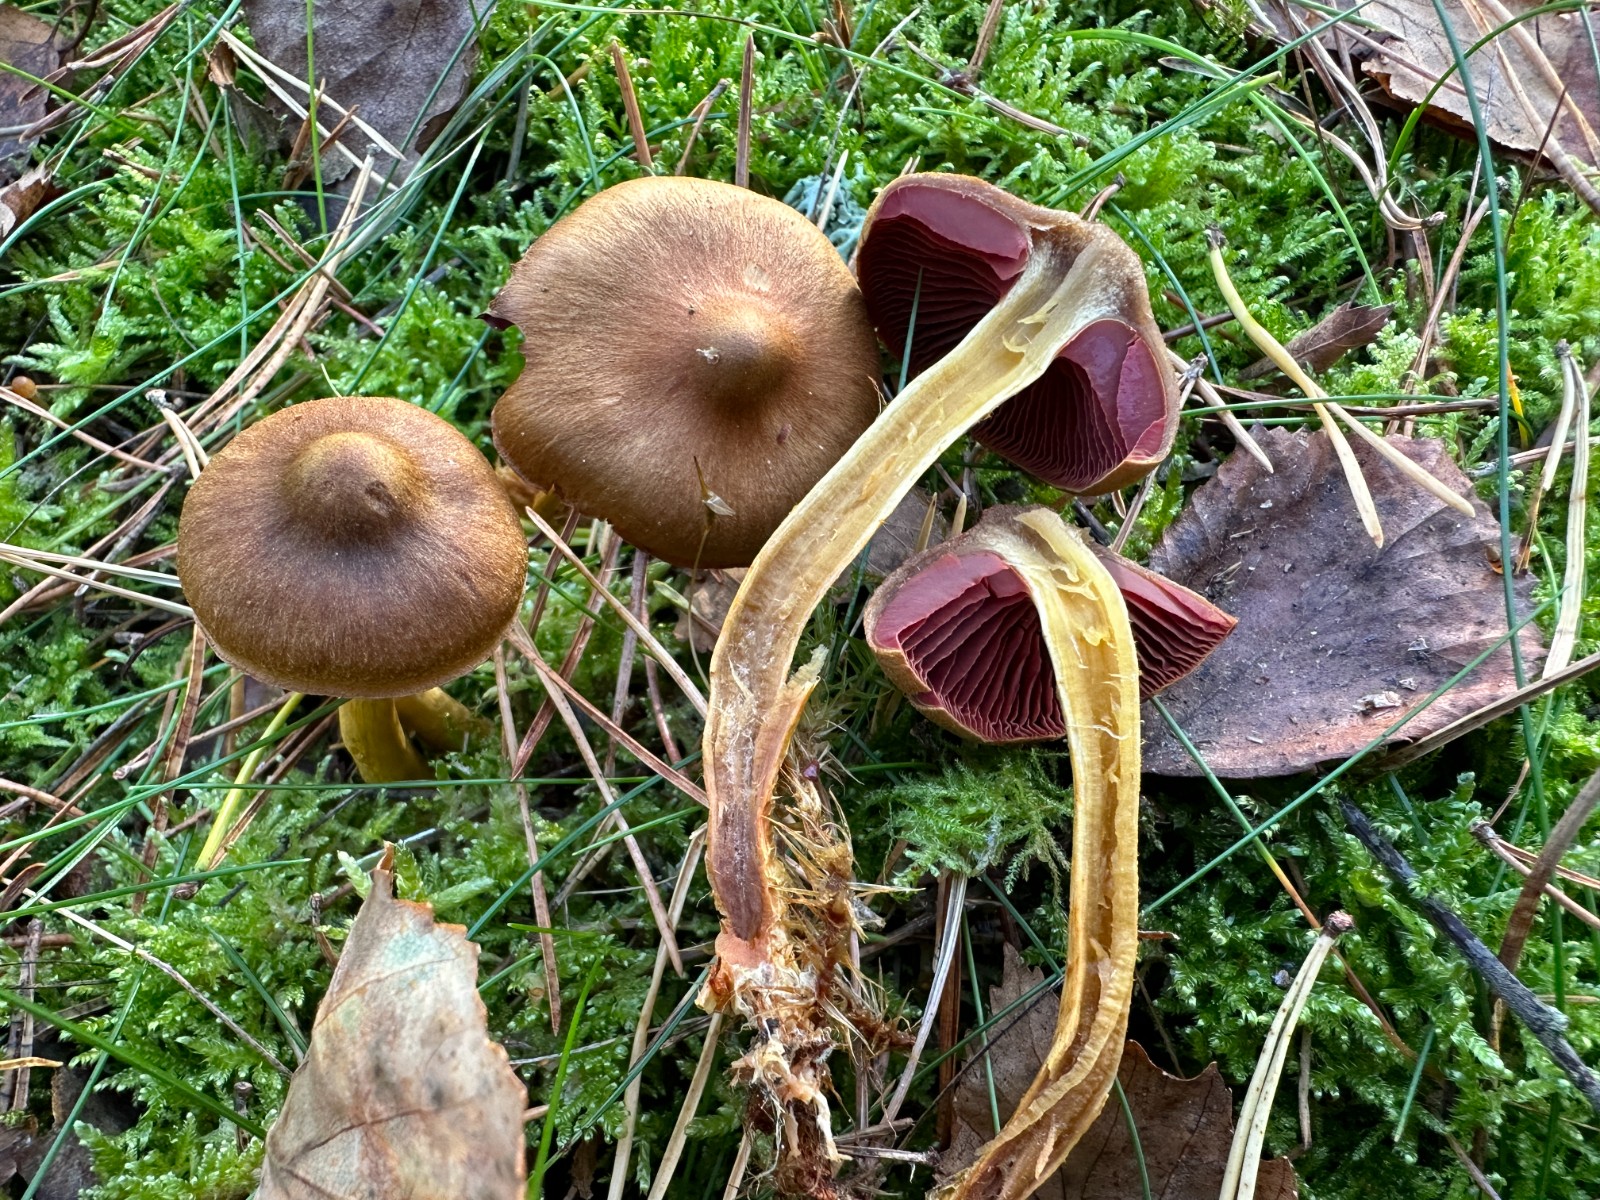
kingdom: Fungi
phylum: Basidiomycota
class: Agaricomycetes
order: Agaricales
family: Cortinariaceae
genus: Cortinarius
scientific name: Cortinarius
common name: cinnoberbladet slørhat
